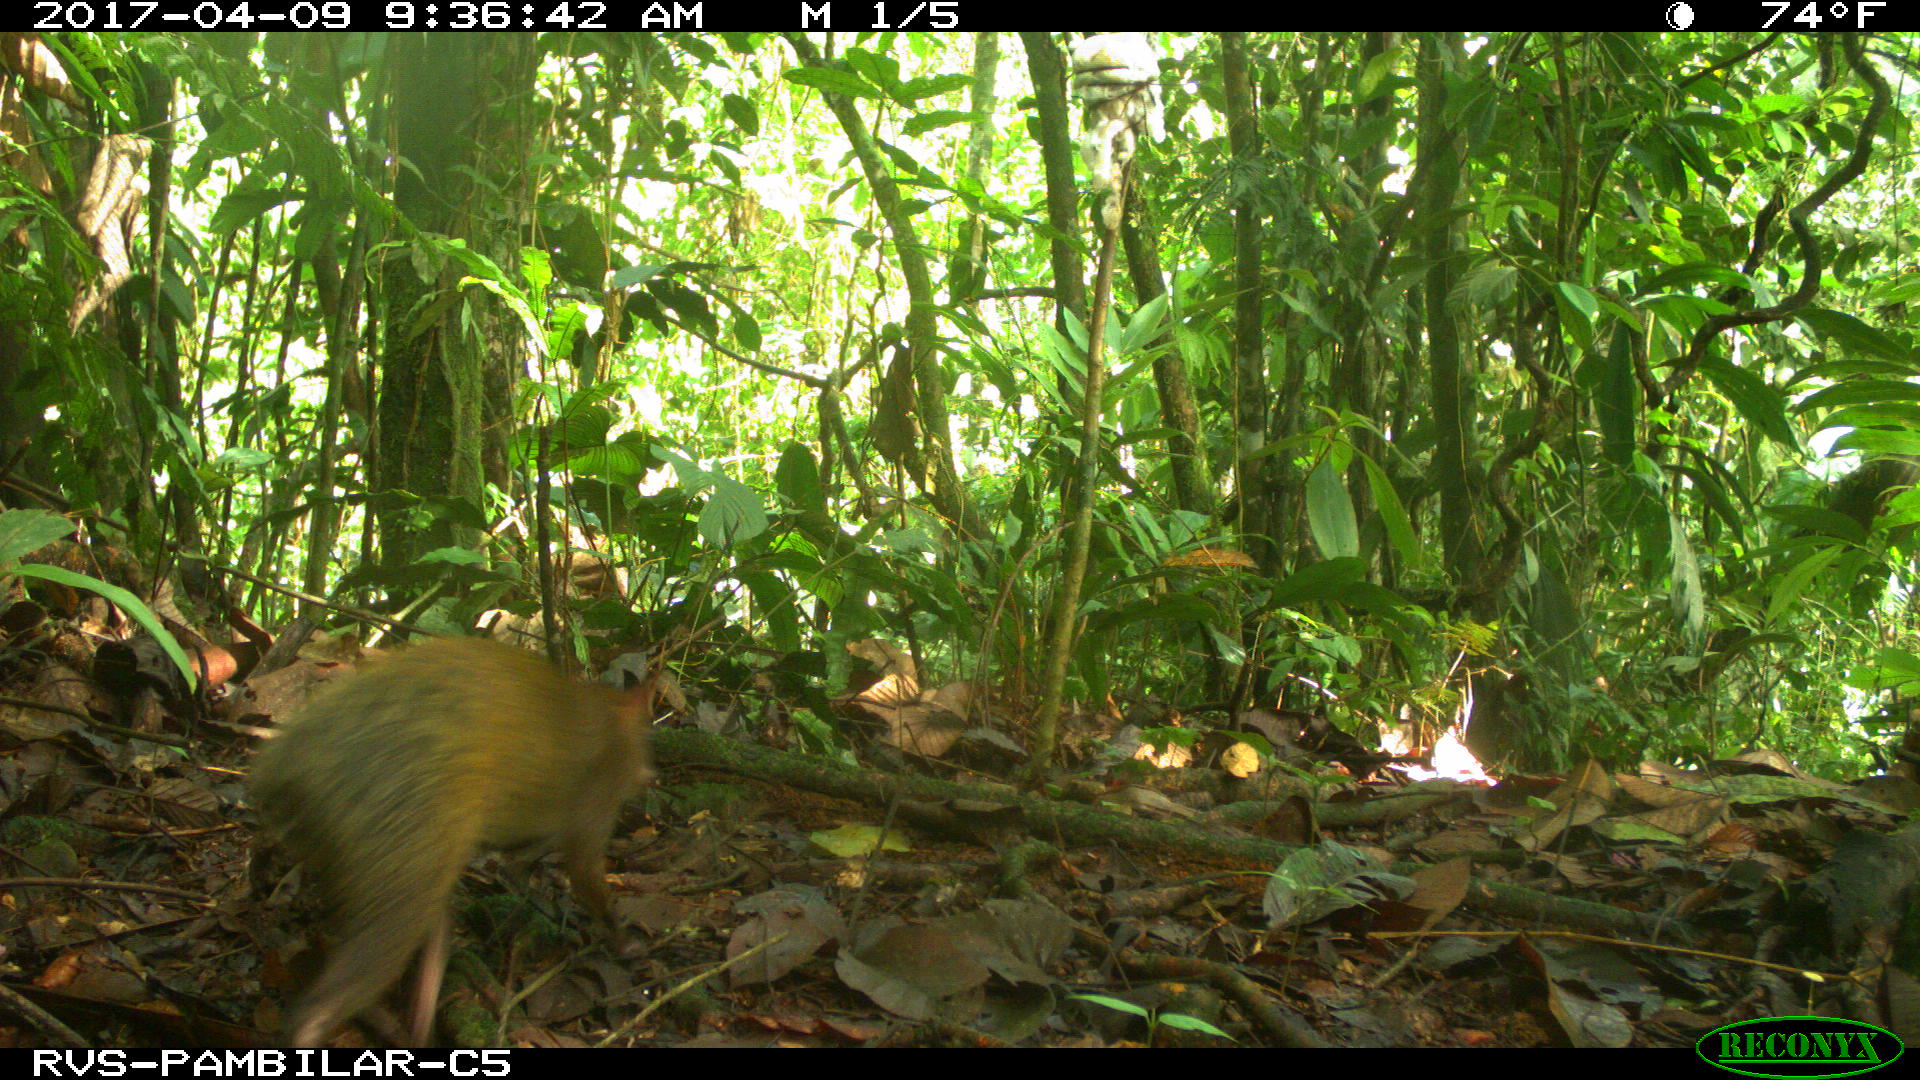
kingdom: Animalia
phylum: Chordata
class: Mammalia
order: Rodentia
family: Dasyproctidae
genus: Dasyprocta
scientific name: Dasyprocta punctata
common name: Central american agouti
